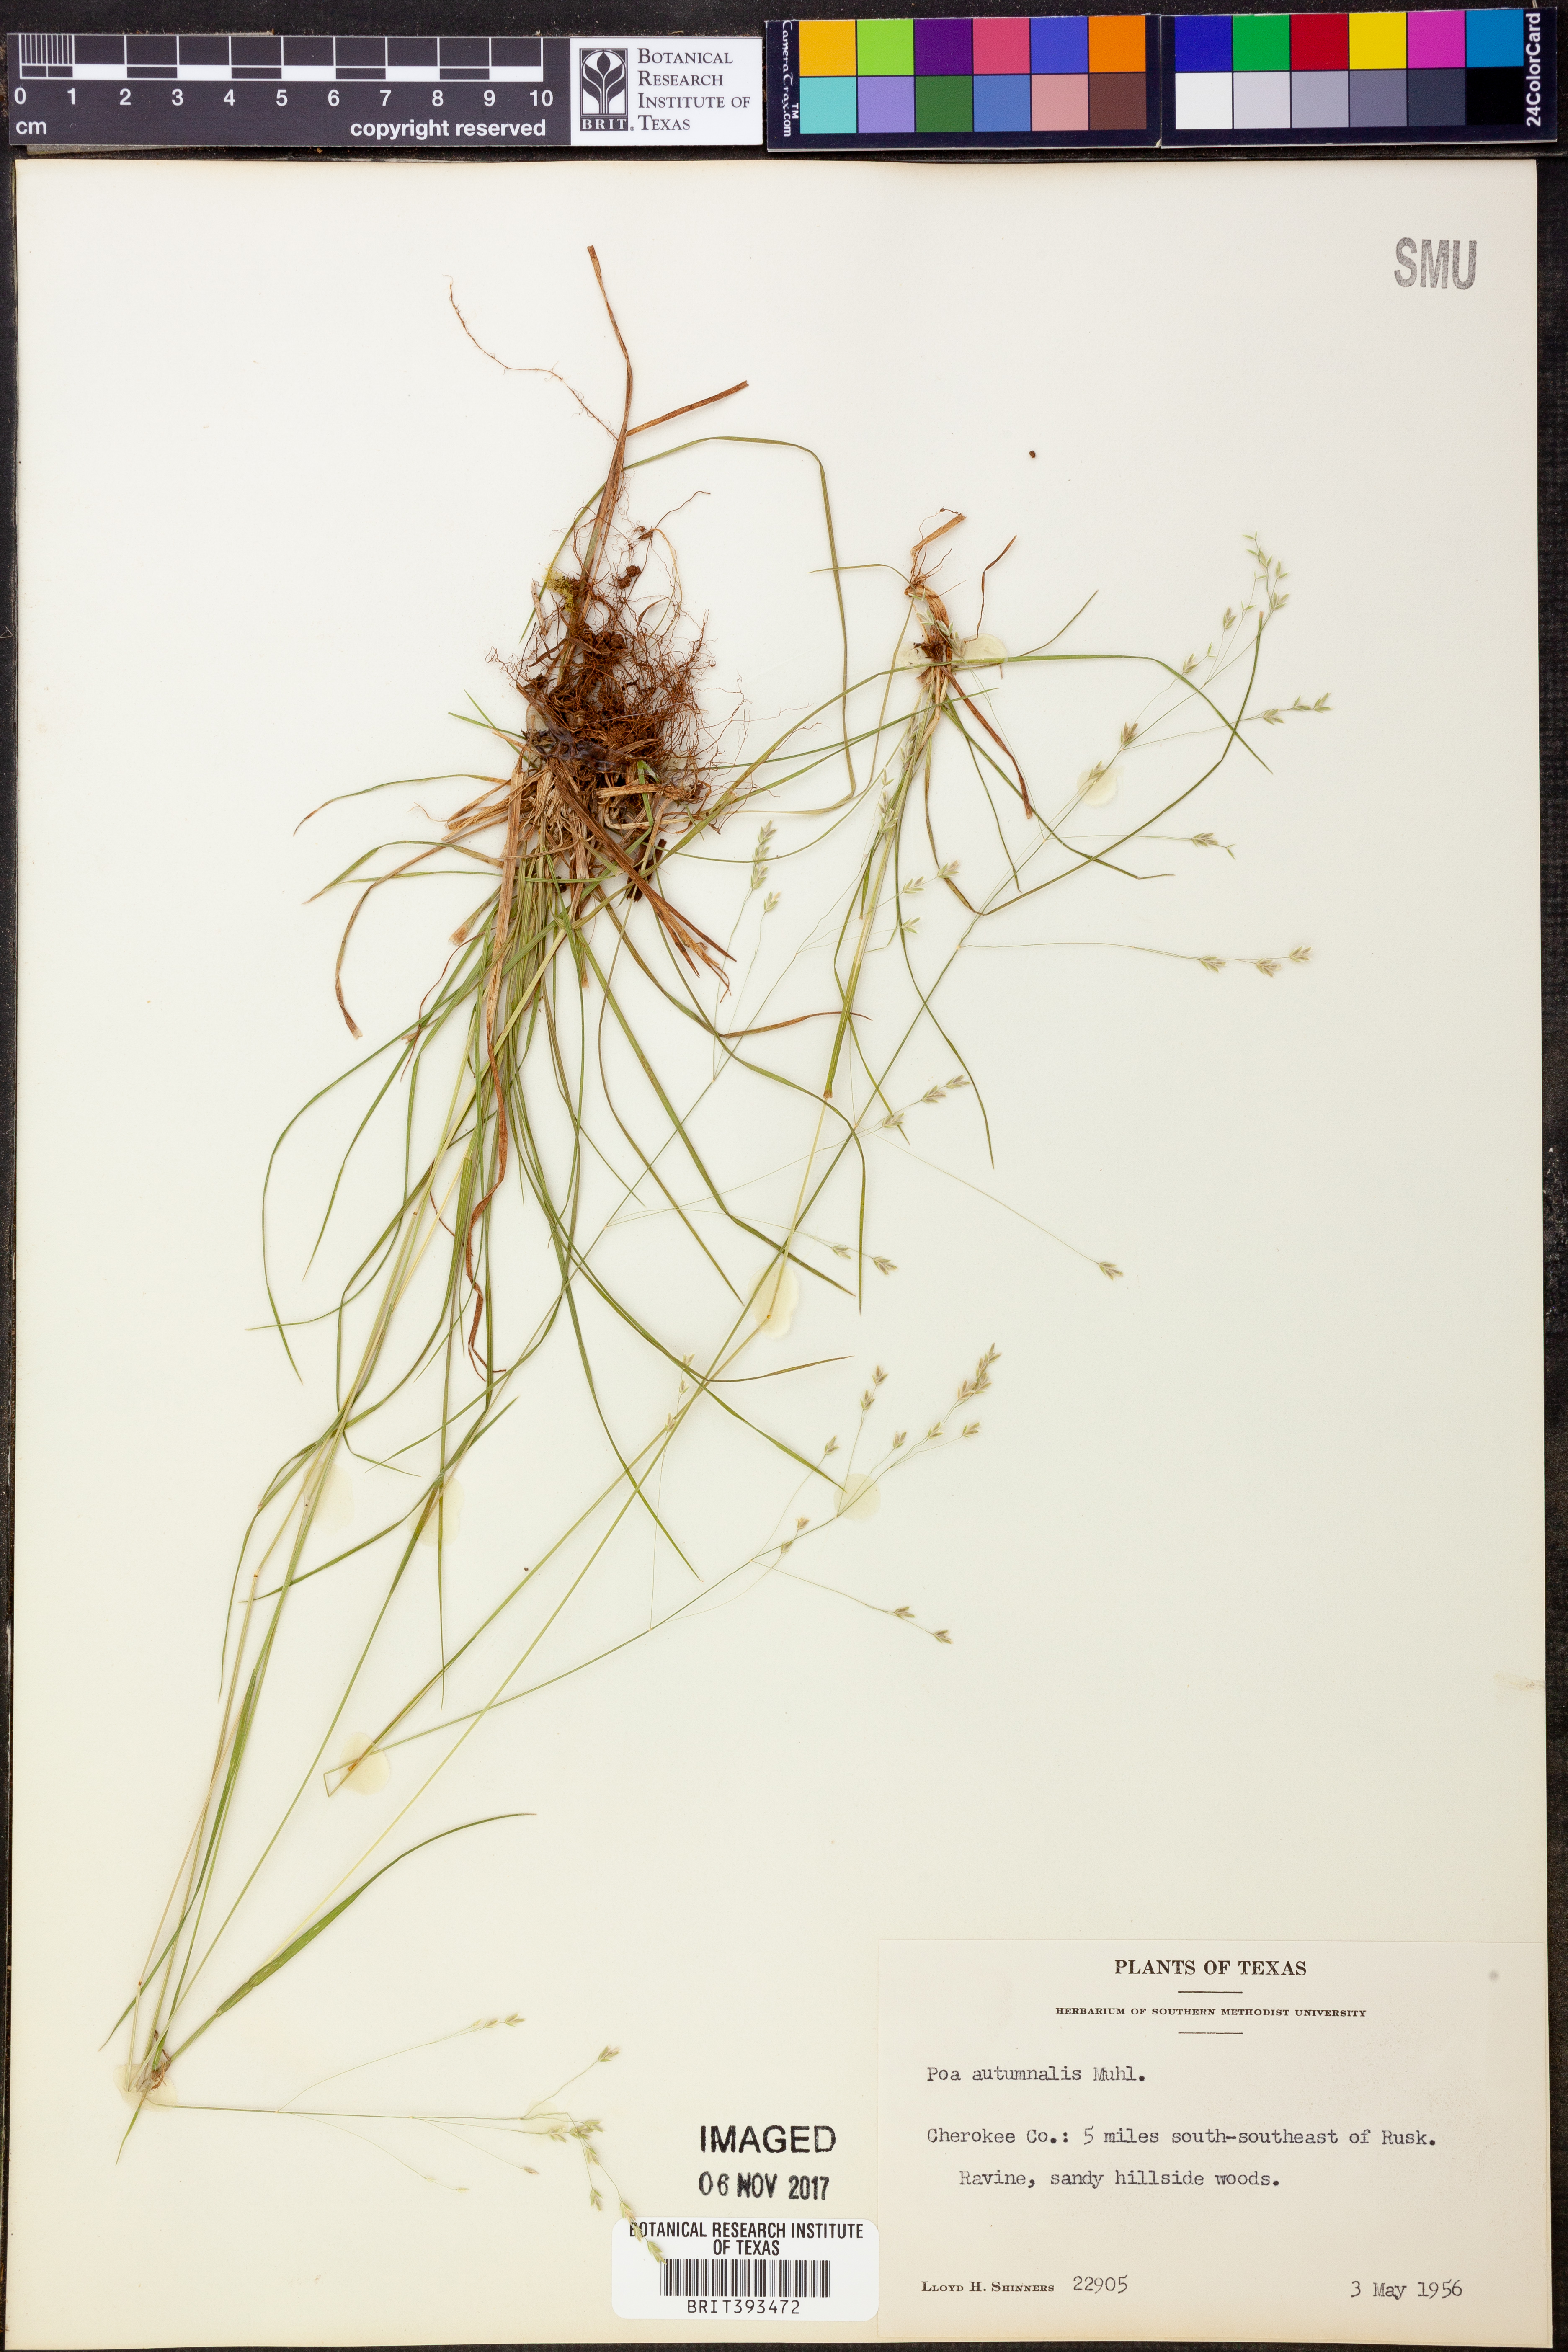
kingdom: Plantae
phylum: Tracheophyta
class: Liliopsida
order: Poales
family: Poaceae
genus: Poa
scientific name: Poa autumnalis
